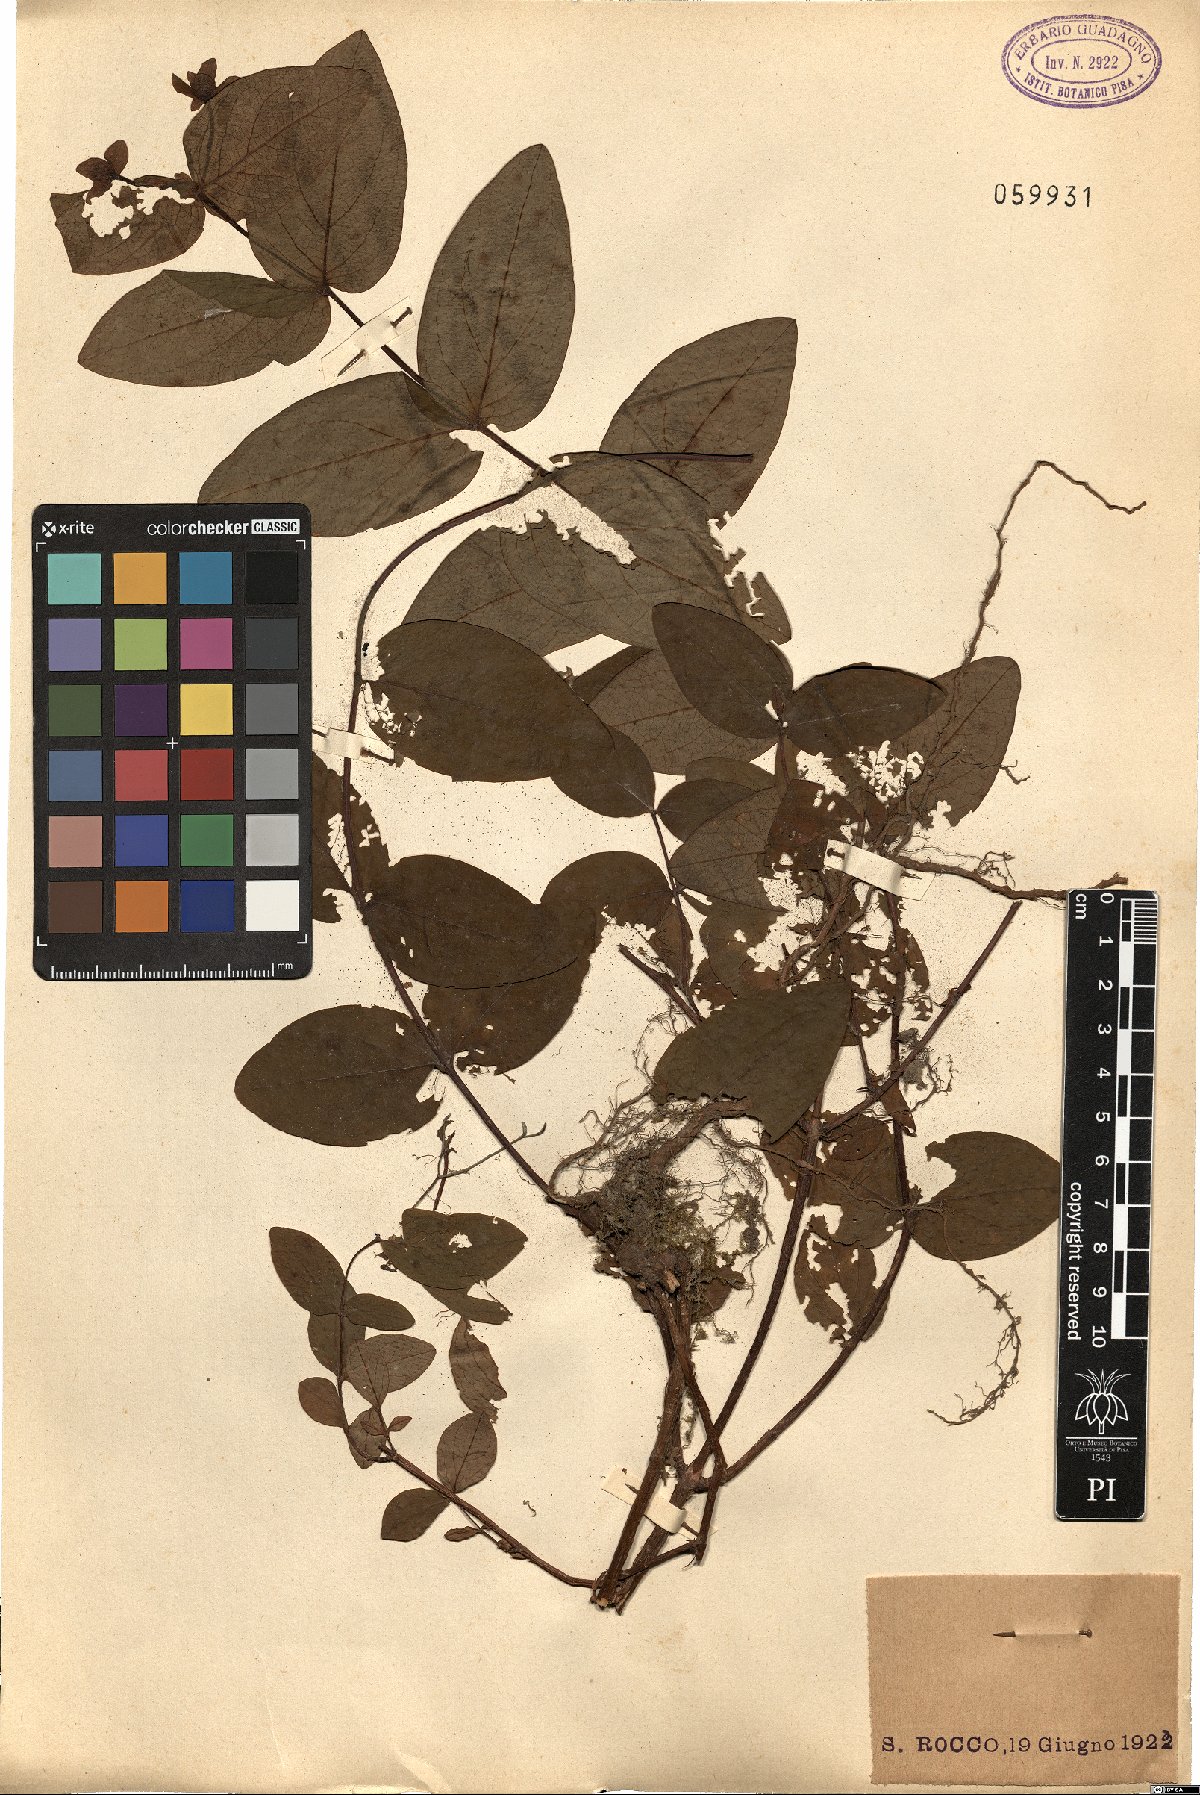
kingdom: Plantae
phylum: Tracheophyta
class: Magnoliopsida
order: Malpighiales
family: Hypericaceae
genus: Hypericum
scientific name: Hypericum androsaemum
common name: Sweet-amber
